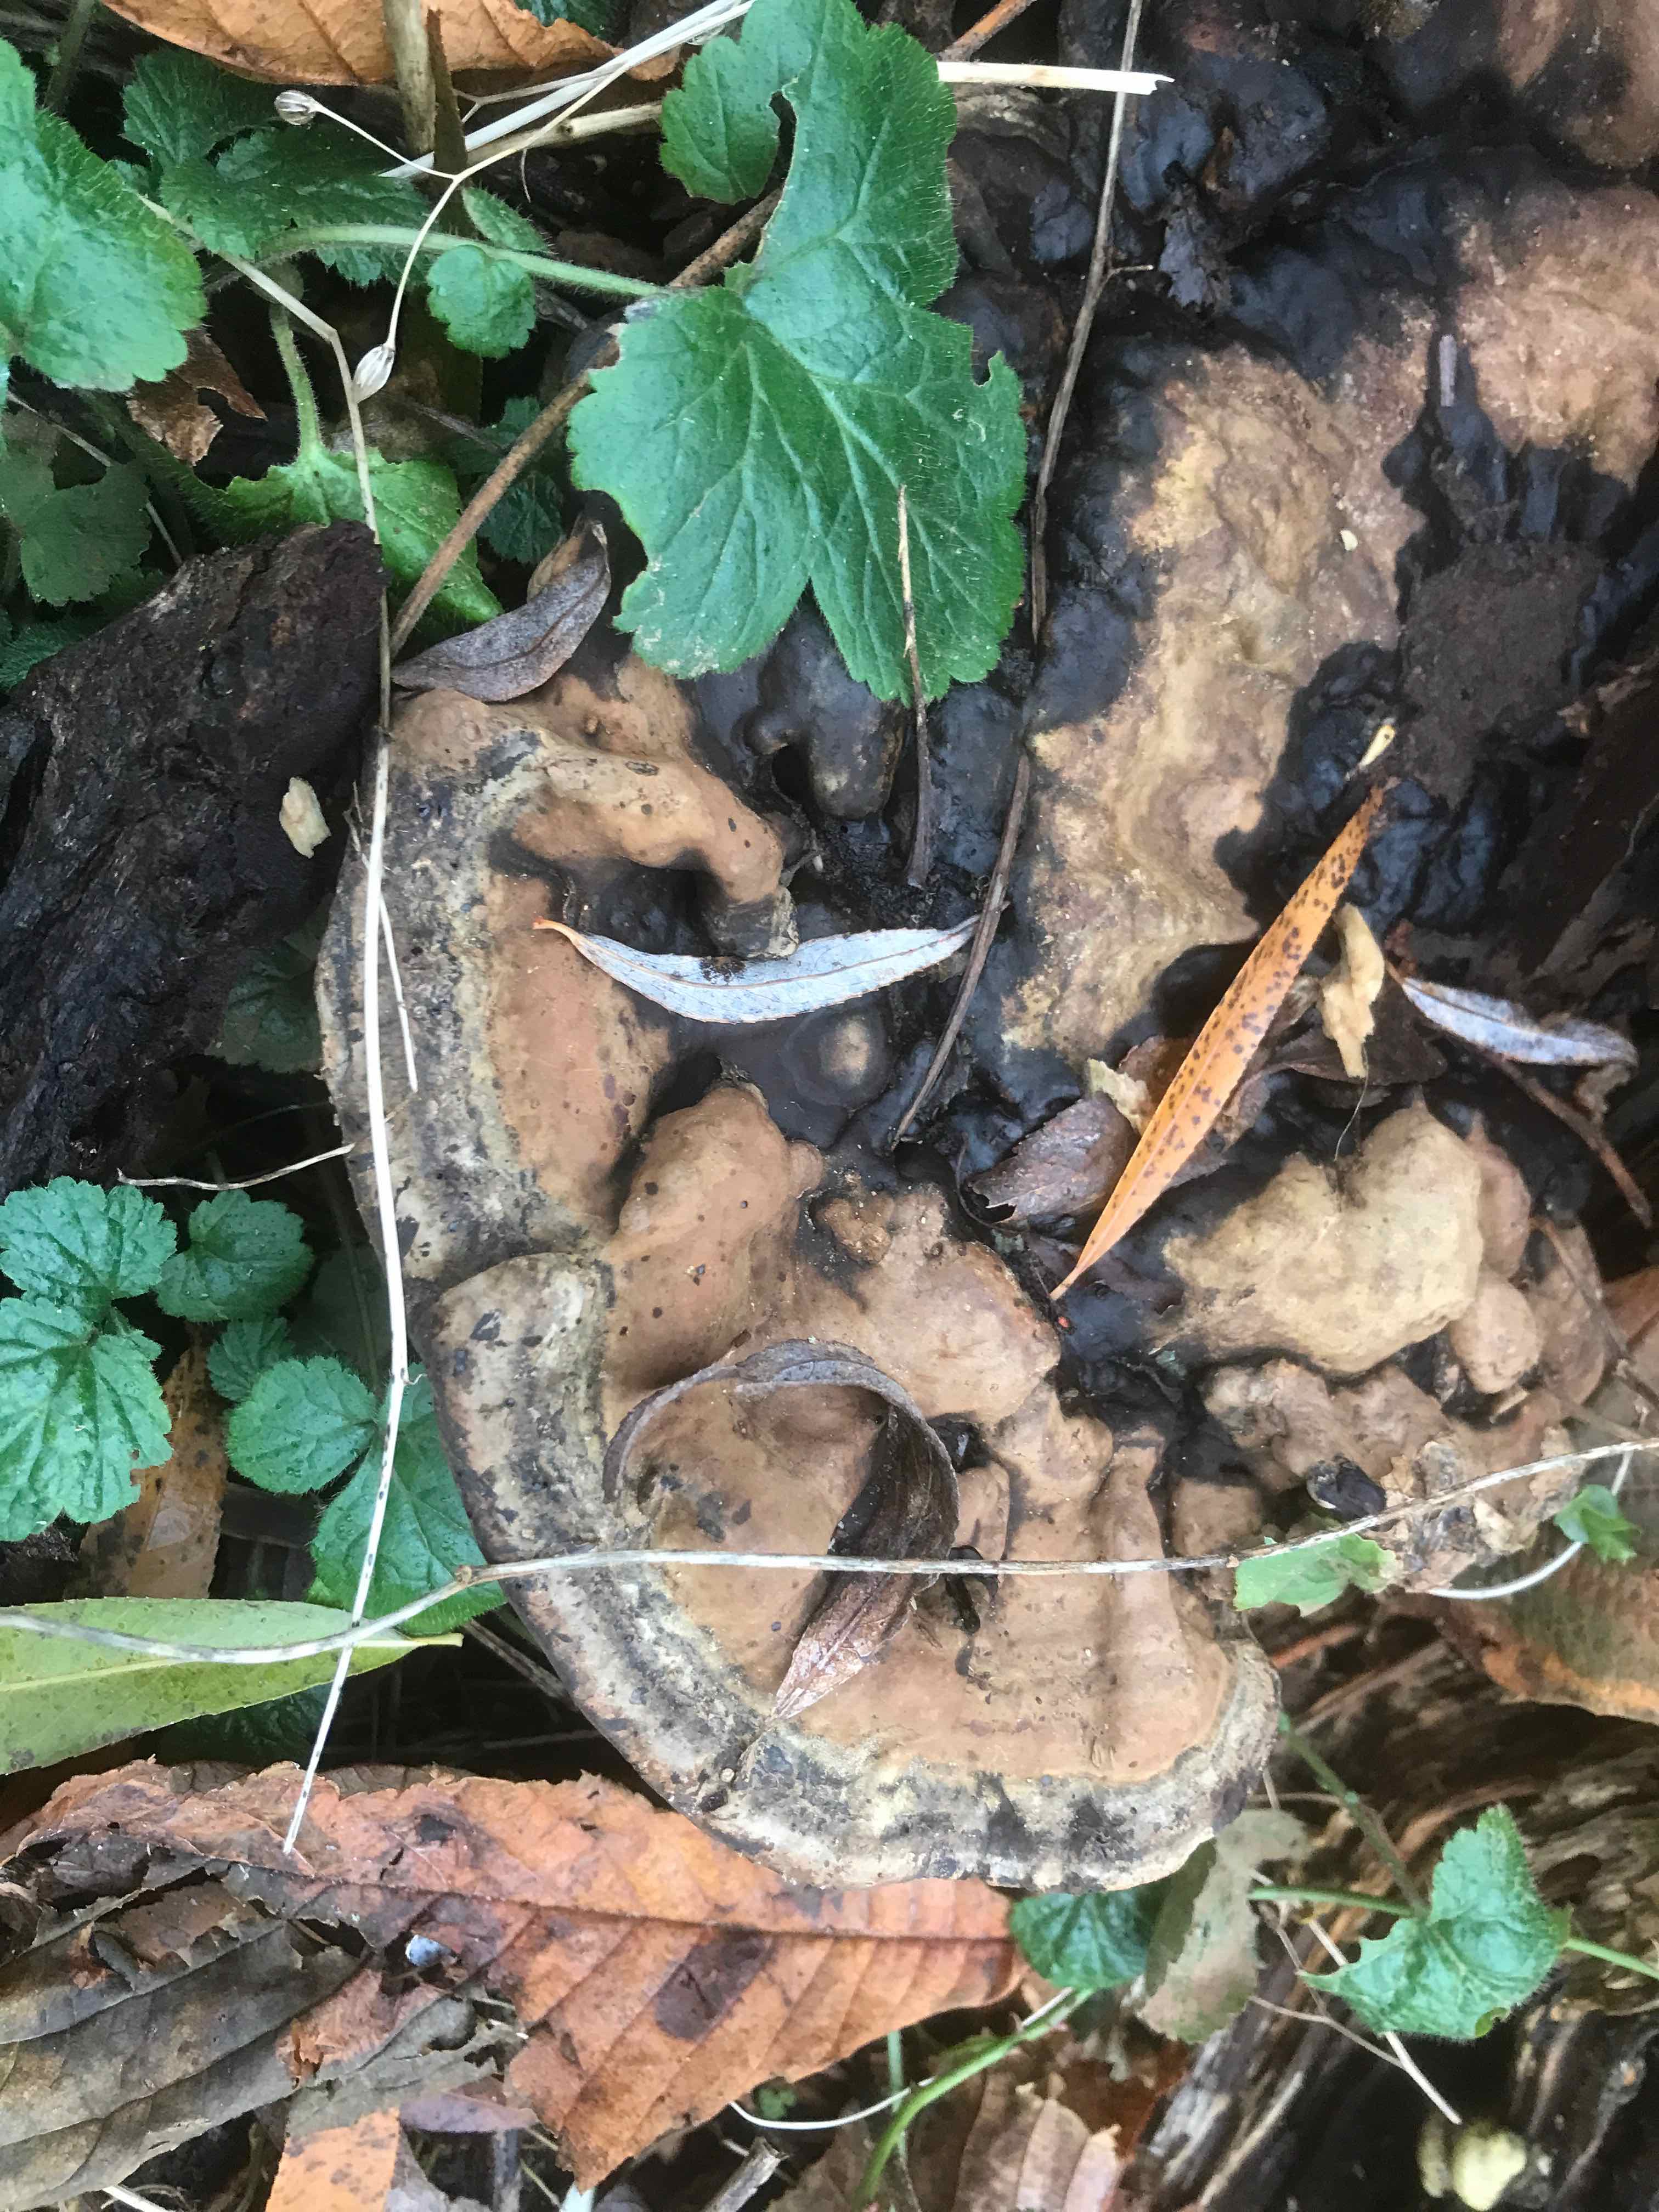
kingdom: Fungi
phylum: Basidiomycota
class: Agaricomycetes
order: Polyporales
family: Polyporaceae
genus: Ganoderma
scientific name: Ganoderma applanatum
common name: flad lakporesvamp
